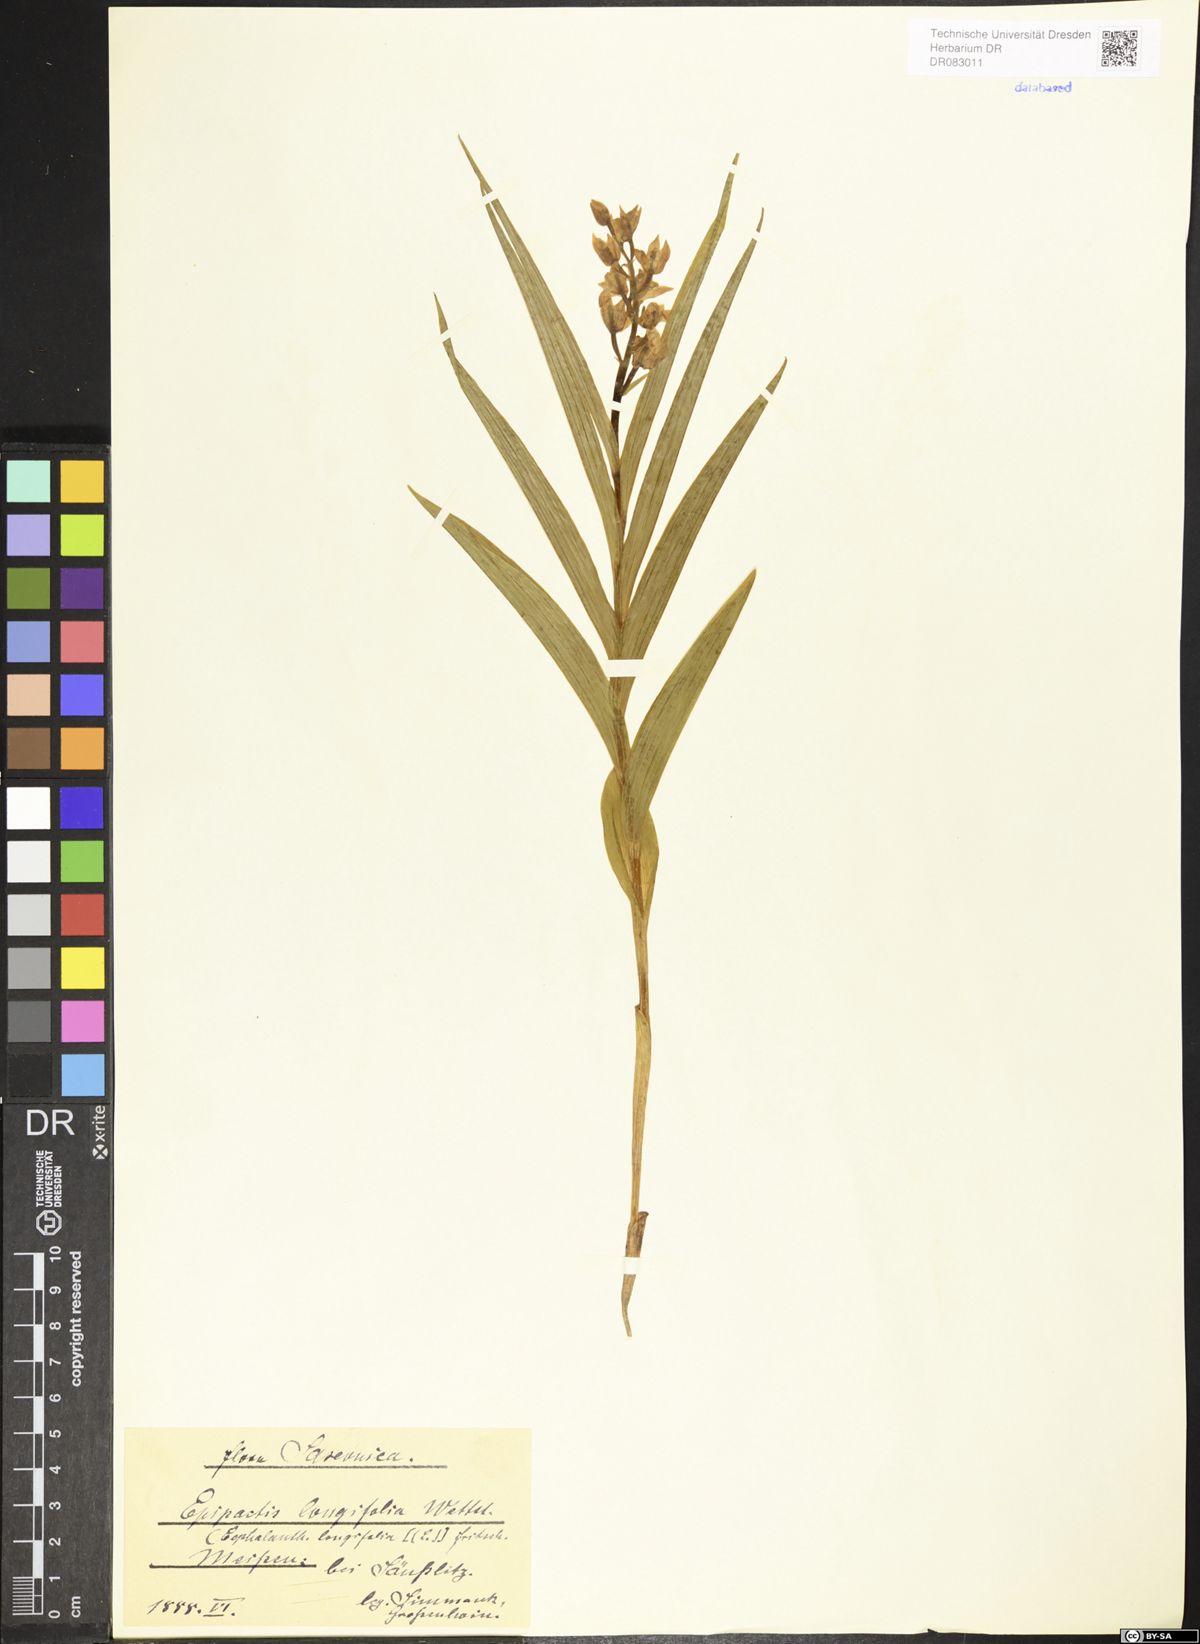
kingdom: Plantae
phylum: Tracheophyta
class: Liliopsida
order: Asparagales
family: Orchidaceae
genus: Cephalanthera
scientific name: Cephalanthera longifolia
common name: Narrow-leaved helleborine
